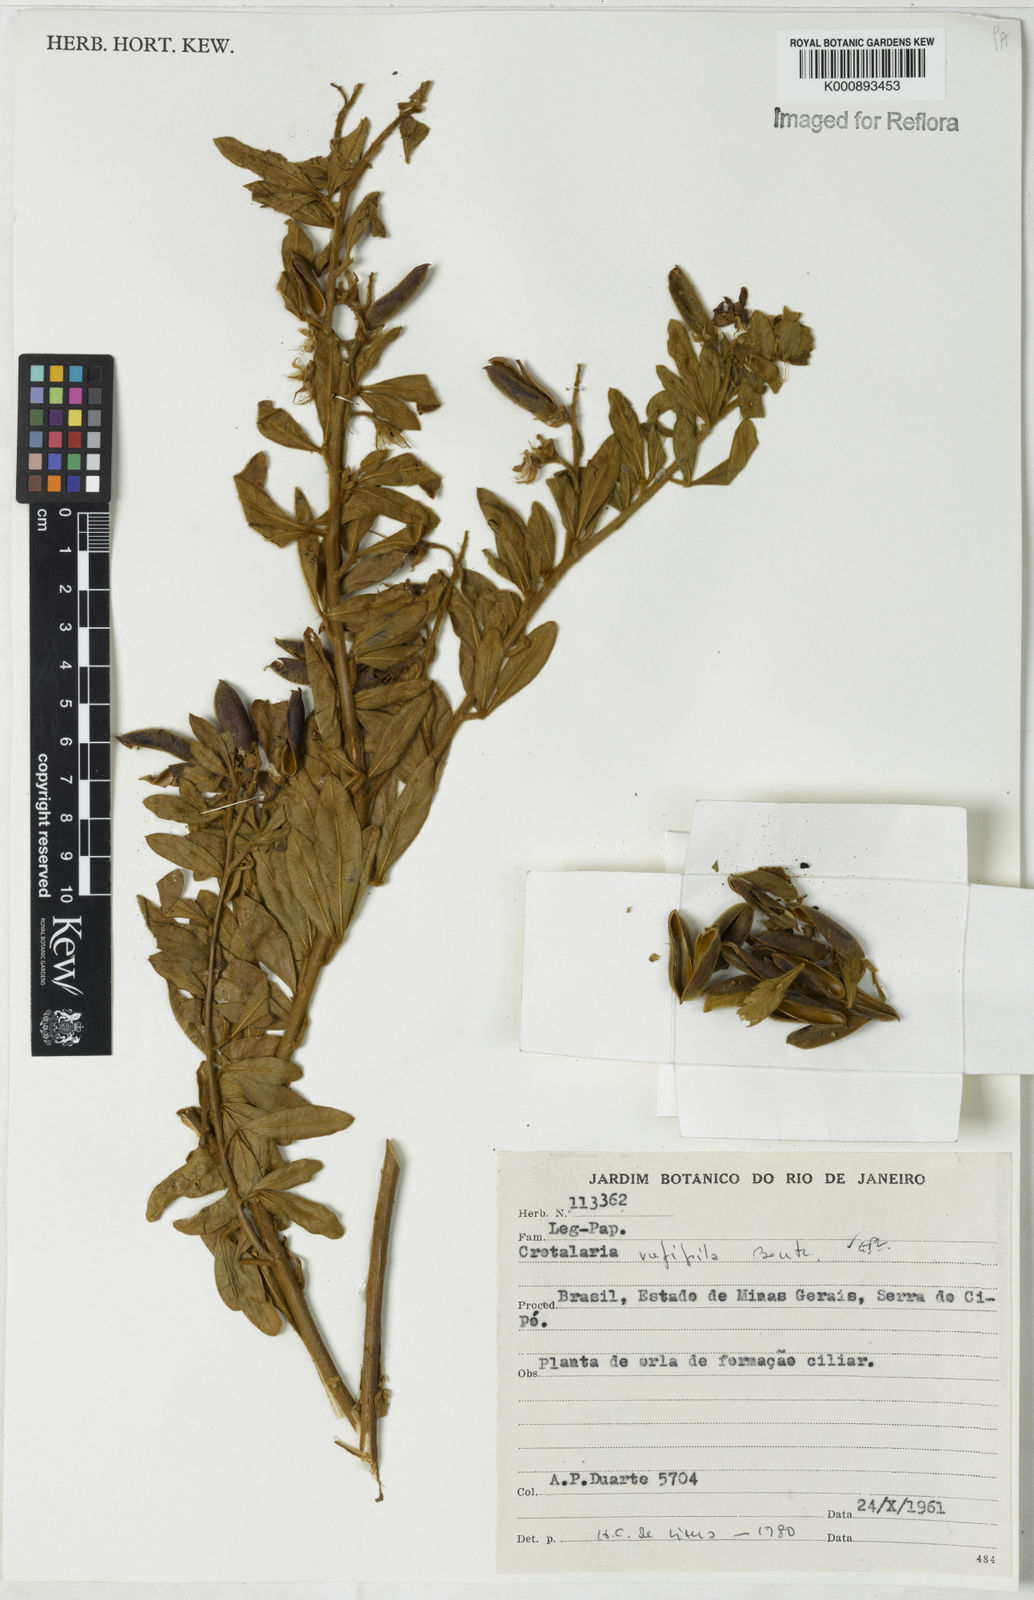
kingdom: Plantae
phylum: Tracheophyta
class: Magnoliopsida
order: Fabales
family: Fabaceae
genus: Crotalaria
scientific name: Crotalaria rufipila
